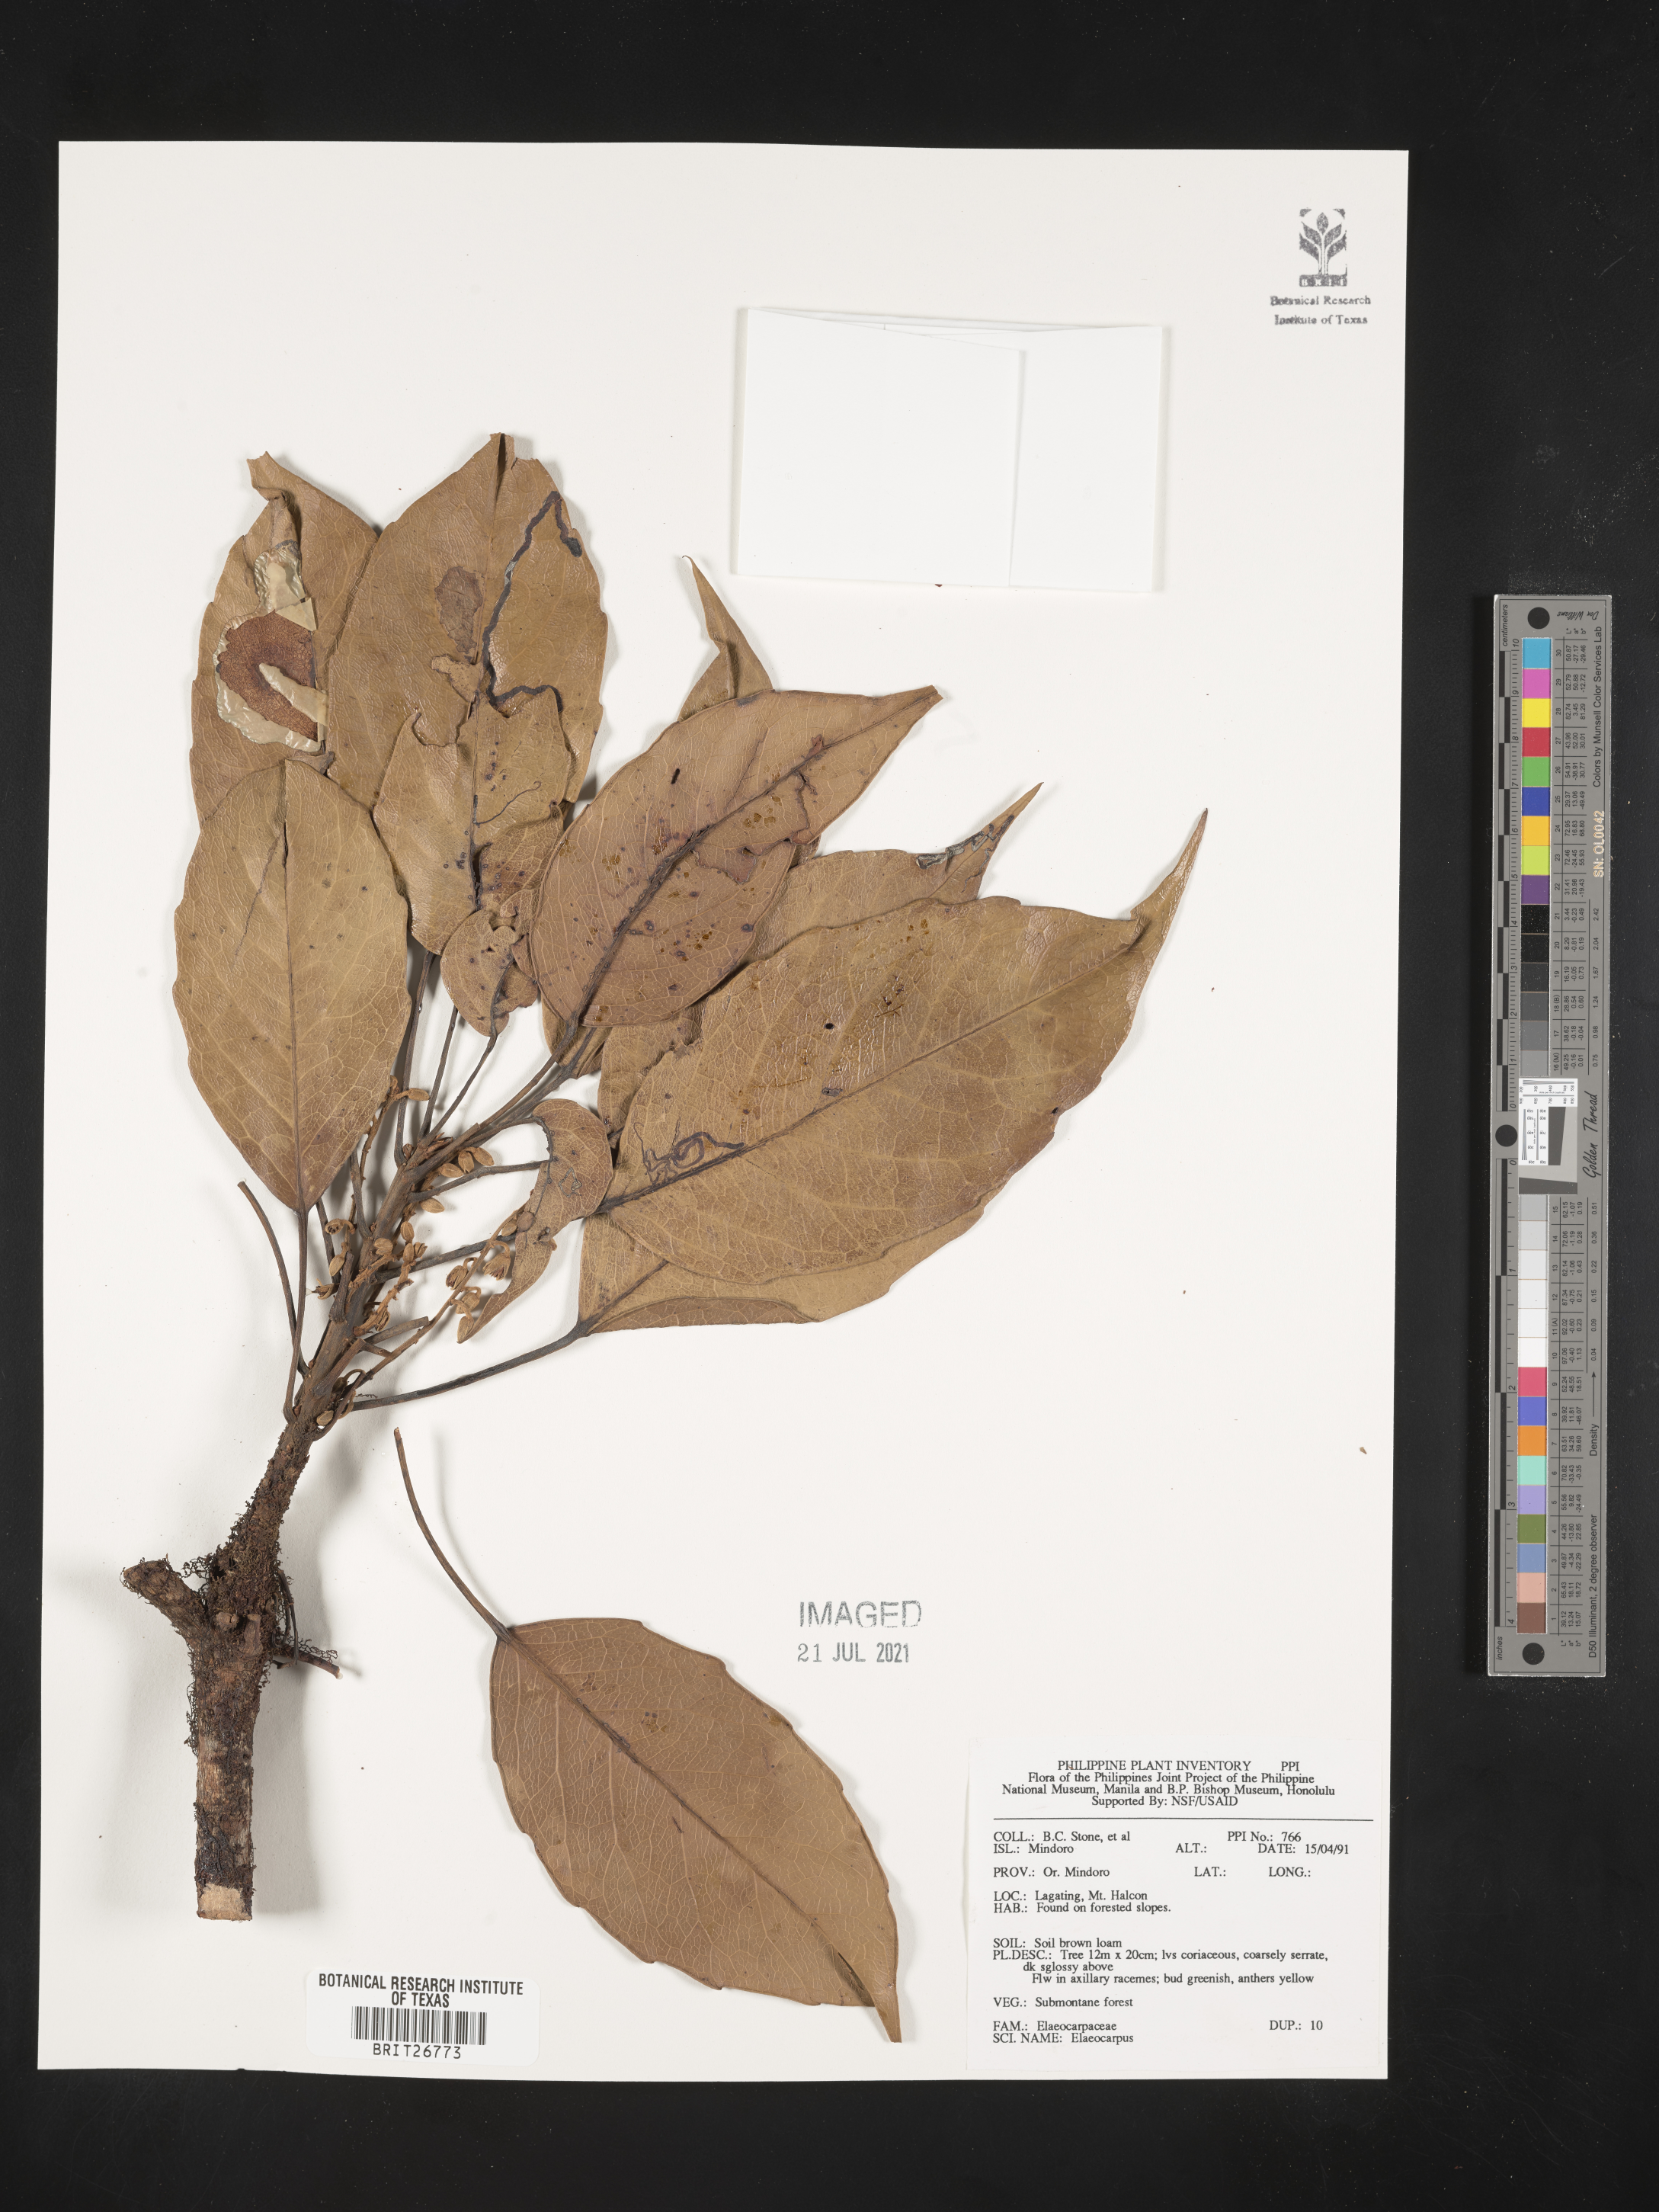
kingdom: Plantae
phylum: Tracheophyta
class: Magnoliopsida
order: Oxalidales
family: Elaeocarpaceae
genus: Elaeocarpus
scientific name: Elaeocarpus
